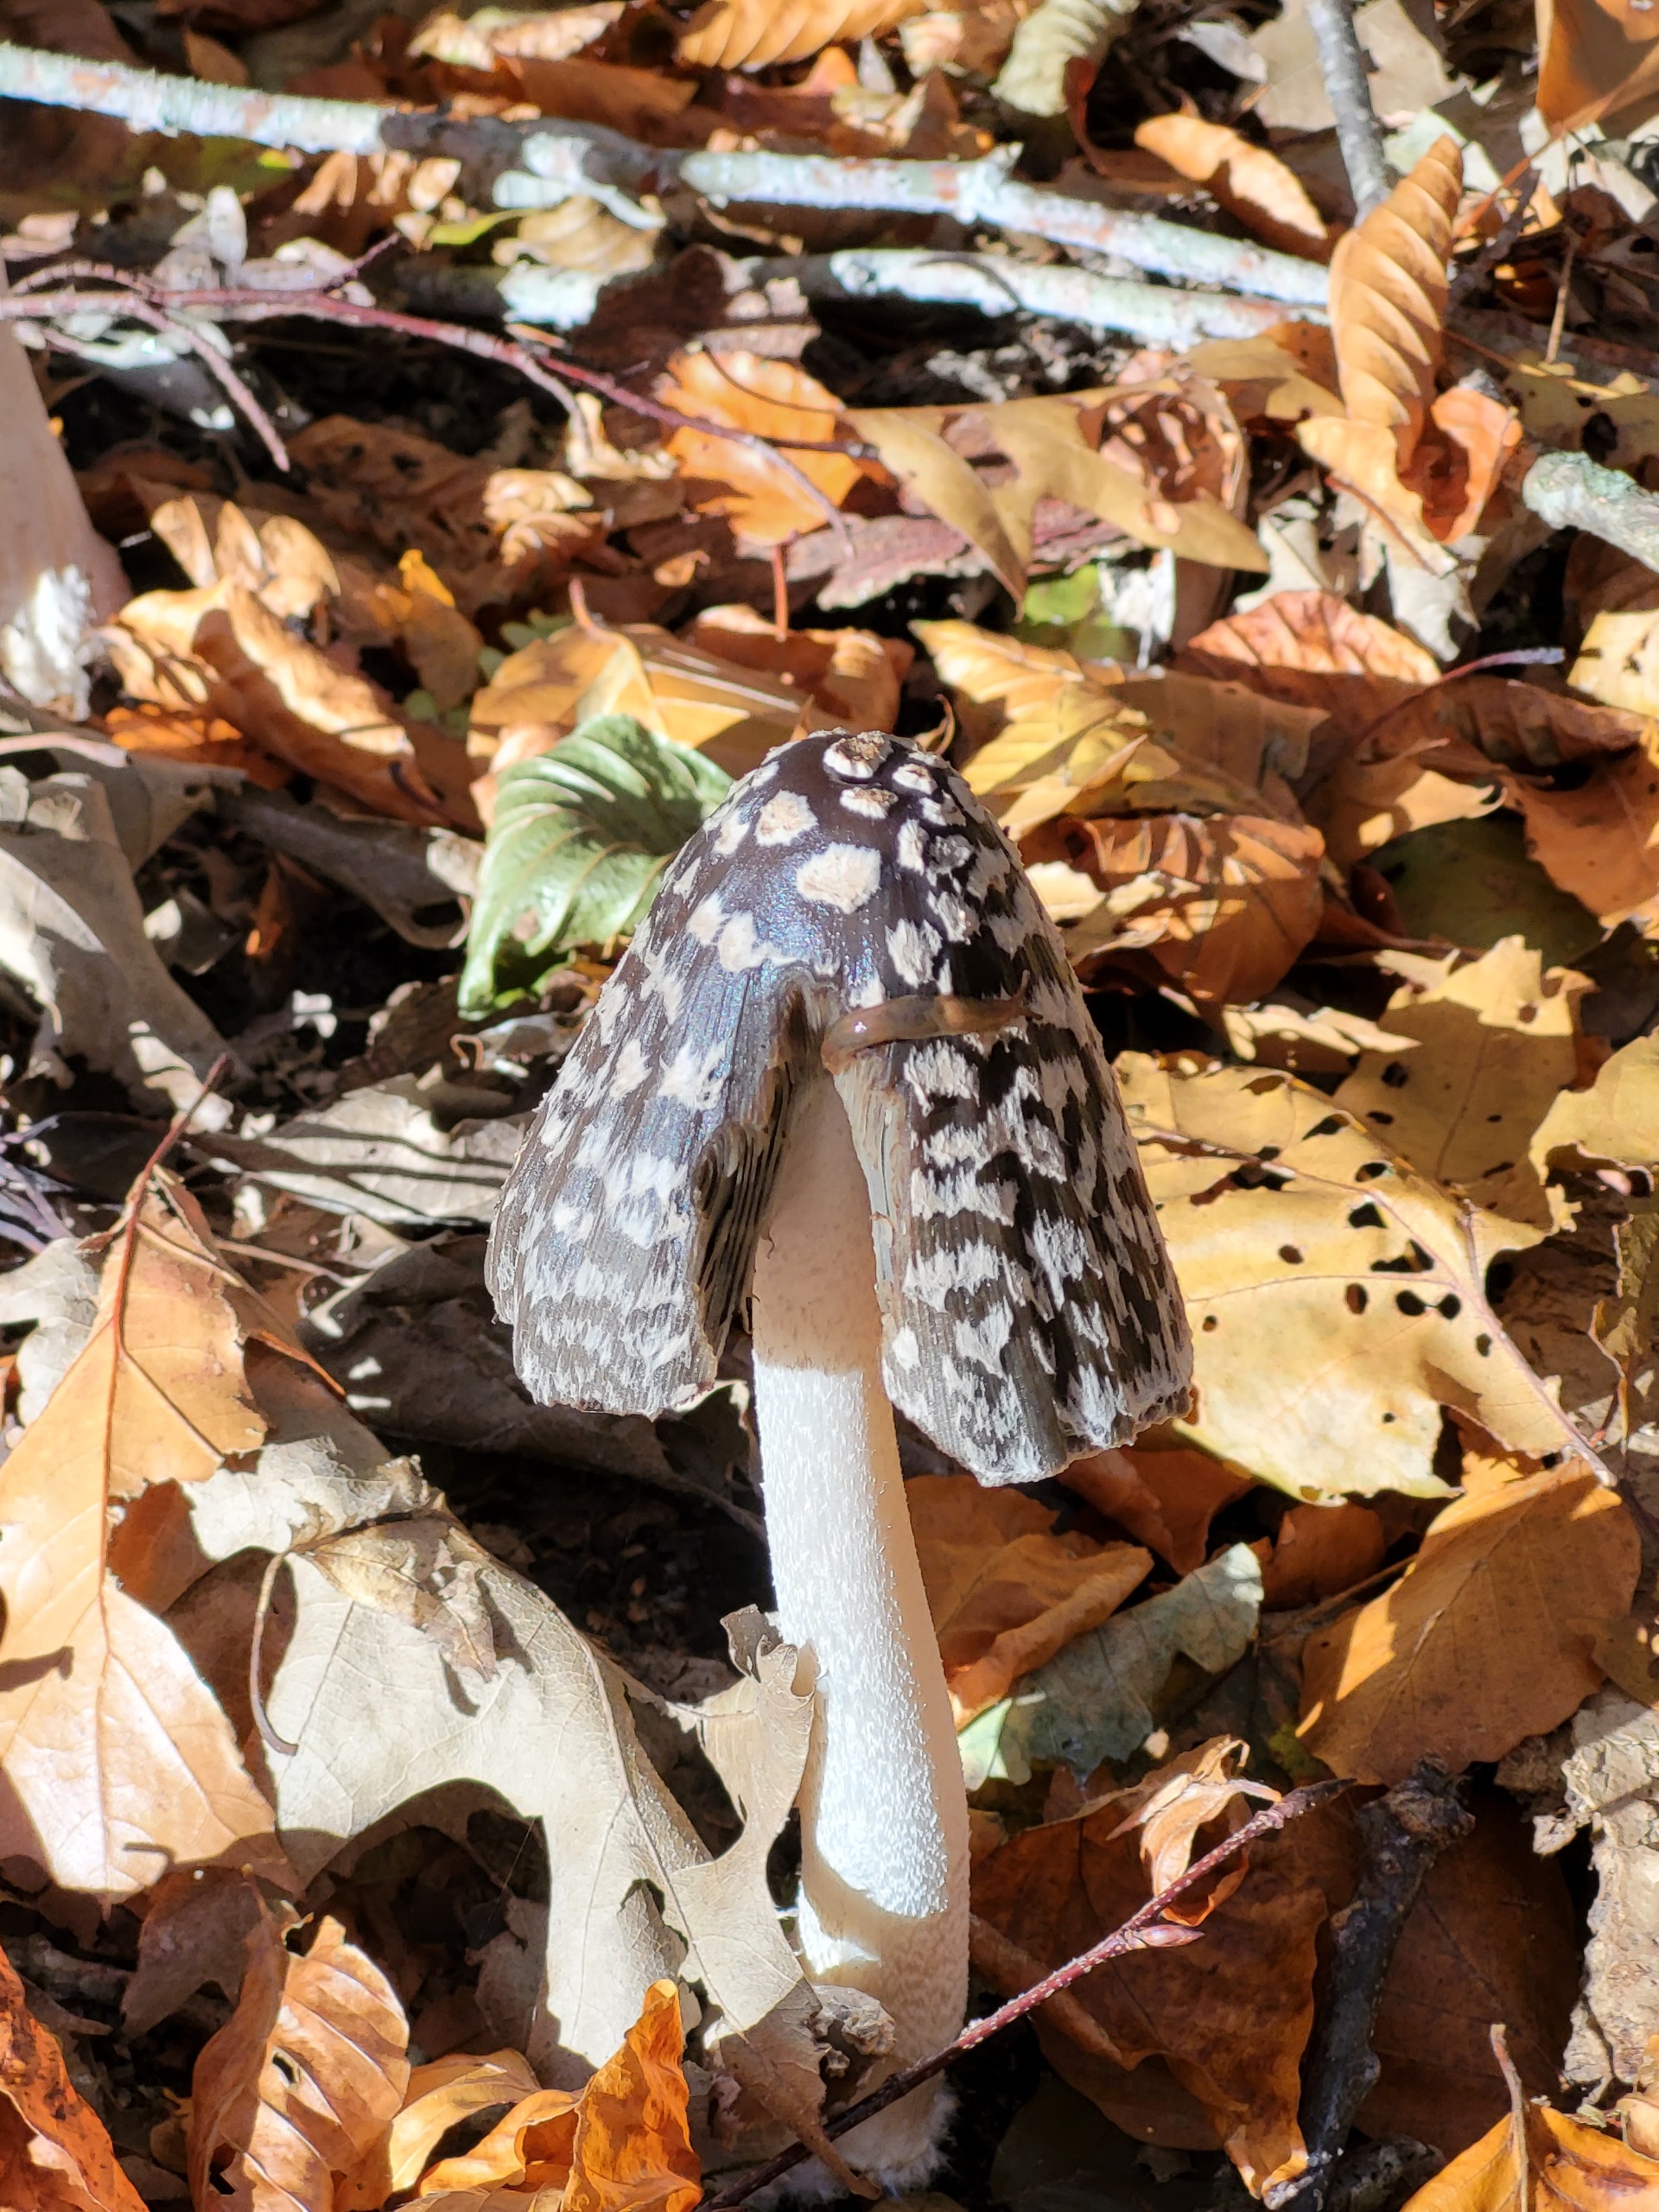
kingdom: Fungi
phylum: Basidiomycota
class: Agaricomycetes
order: Agaricales
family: Psathyrellaceae
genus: Coprinopsis
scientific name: Coprinopsis picacea
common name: Skade-blækhat
